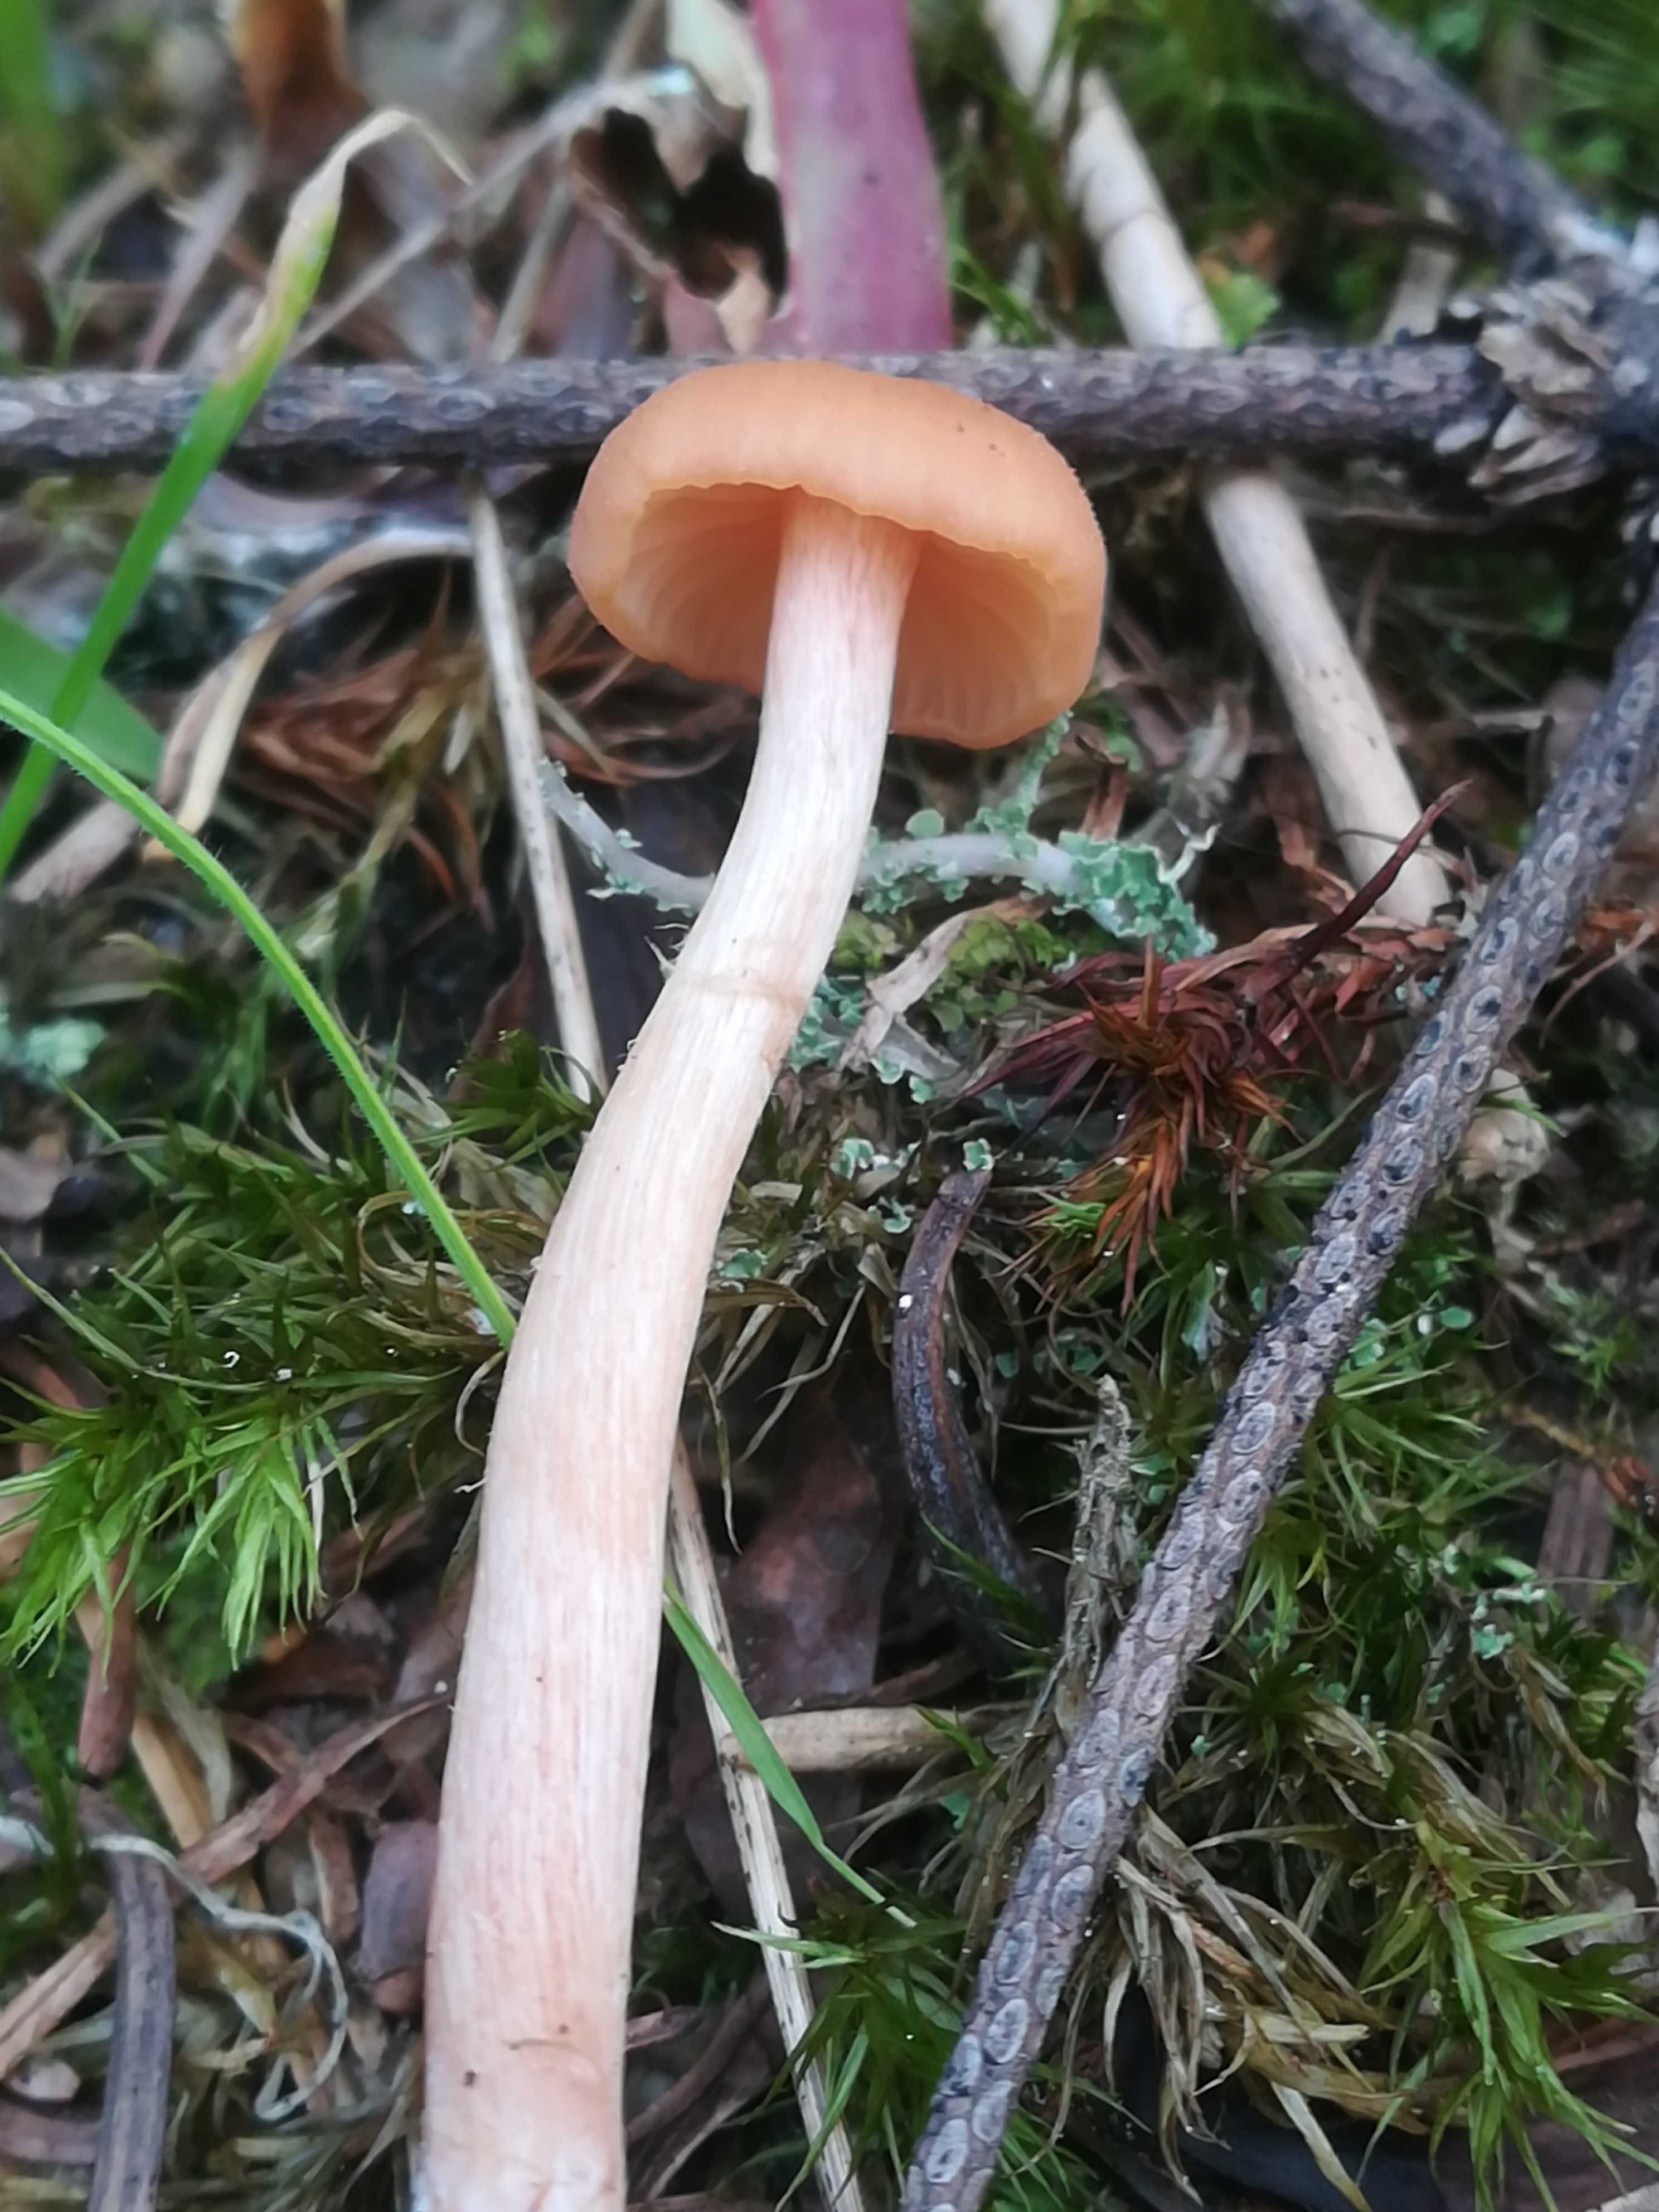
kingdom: Fungi
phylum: Basidiomycota
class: Agaricomycetes
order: Agaricales
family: Hydnangiaceae
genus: Laccaria
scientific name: Laccaria laccata
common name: rød ametysthat
